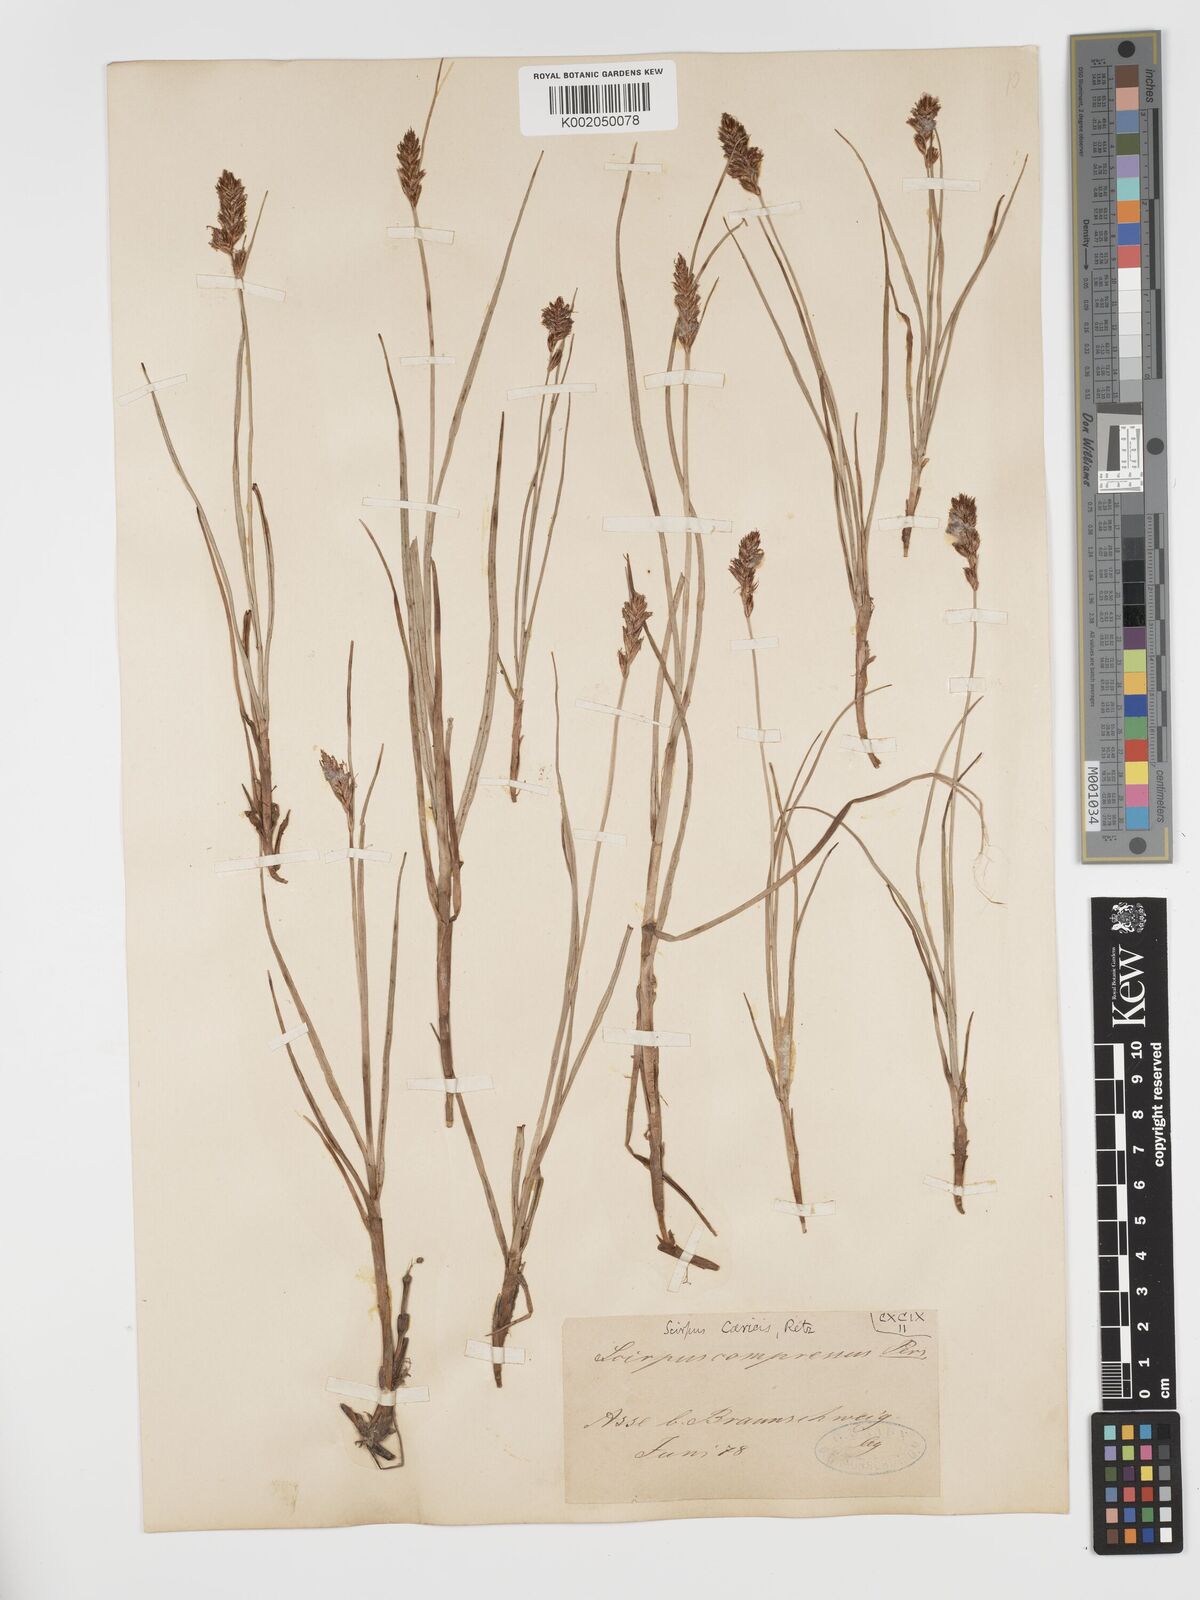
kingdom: Plantae
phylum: Tracheophyta
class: Liliopsida
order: Poales
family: Cyperaceae
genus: Blysmus
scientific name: Blysmus compressus
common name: Flat-sedge
